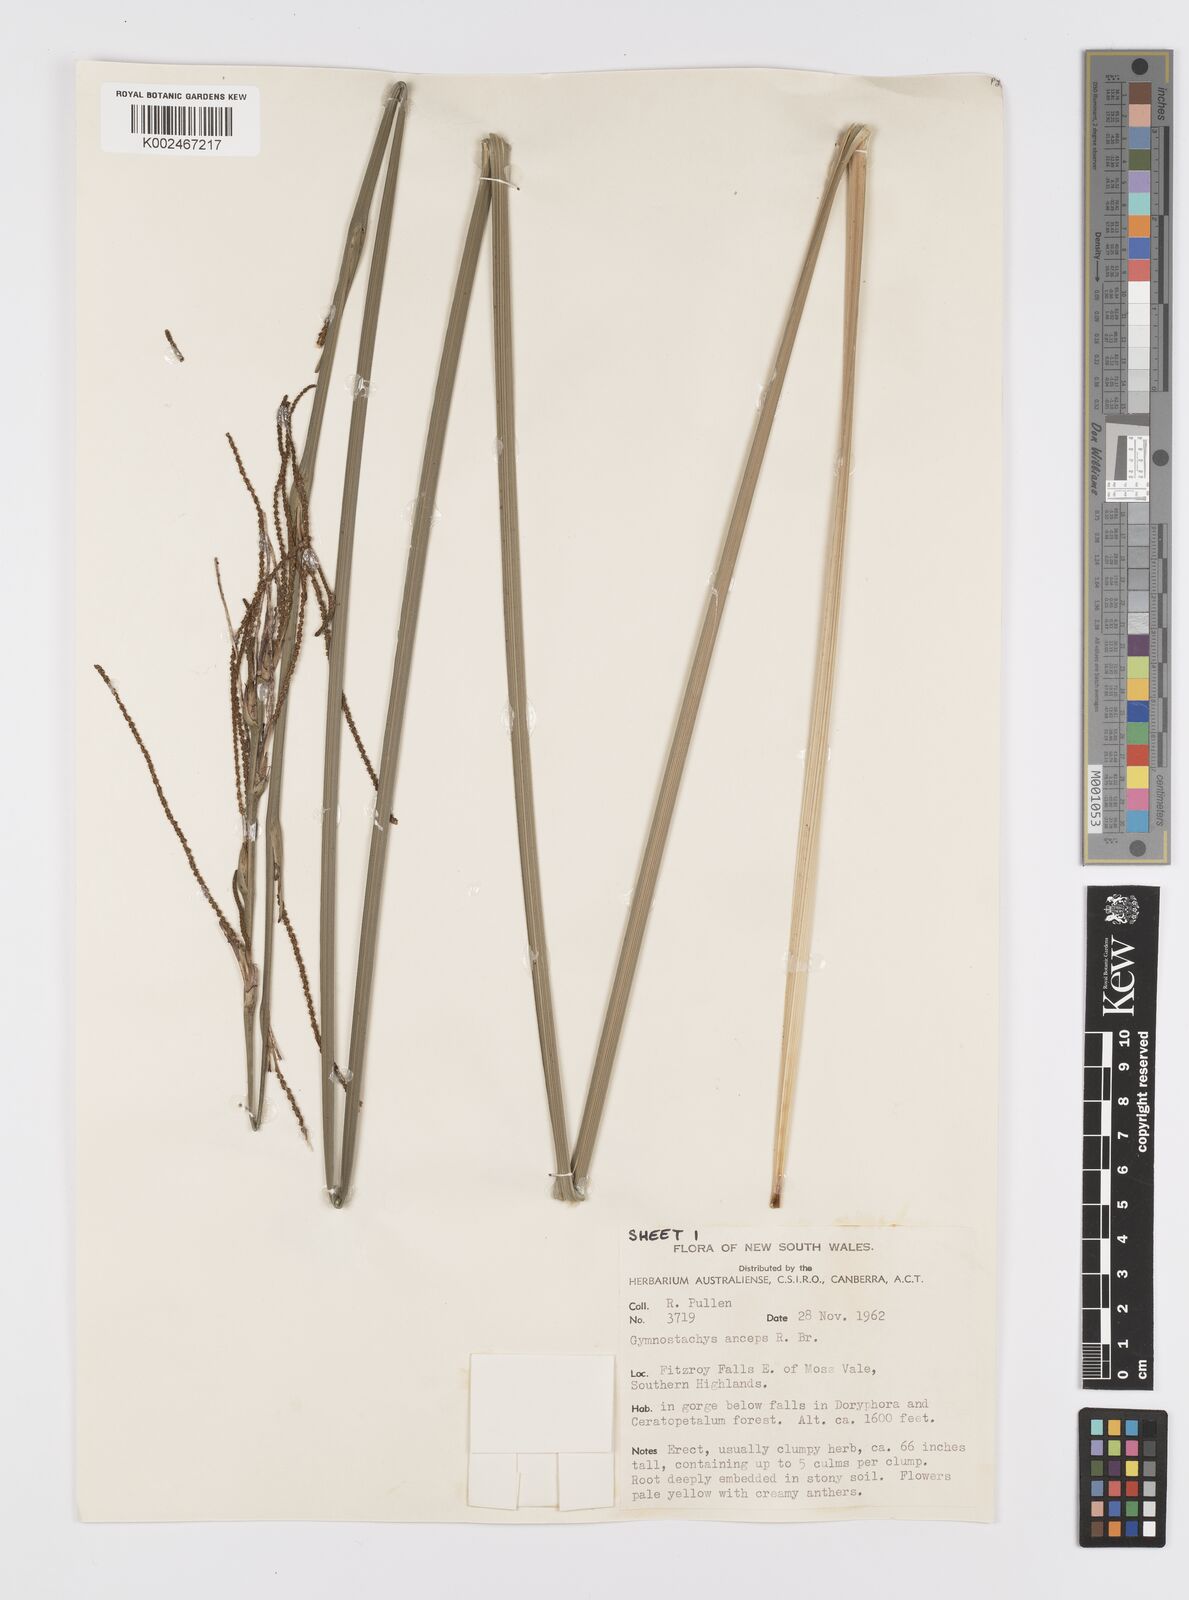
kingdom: Plantae
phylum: Tracheophyta
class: Liliopsida
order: Alismatales
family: Araceae
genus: Gymnostachys
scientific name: Gymnostachys anceps
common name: Settler's-flax
